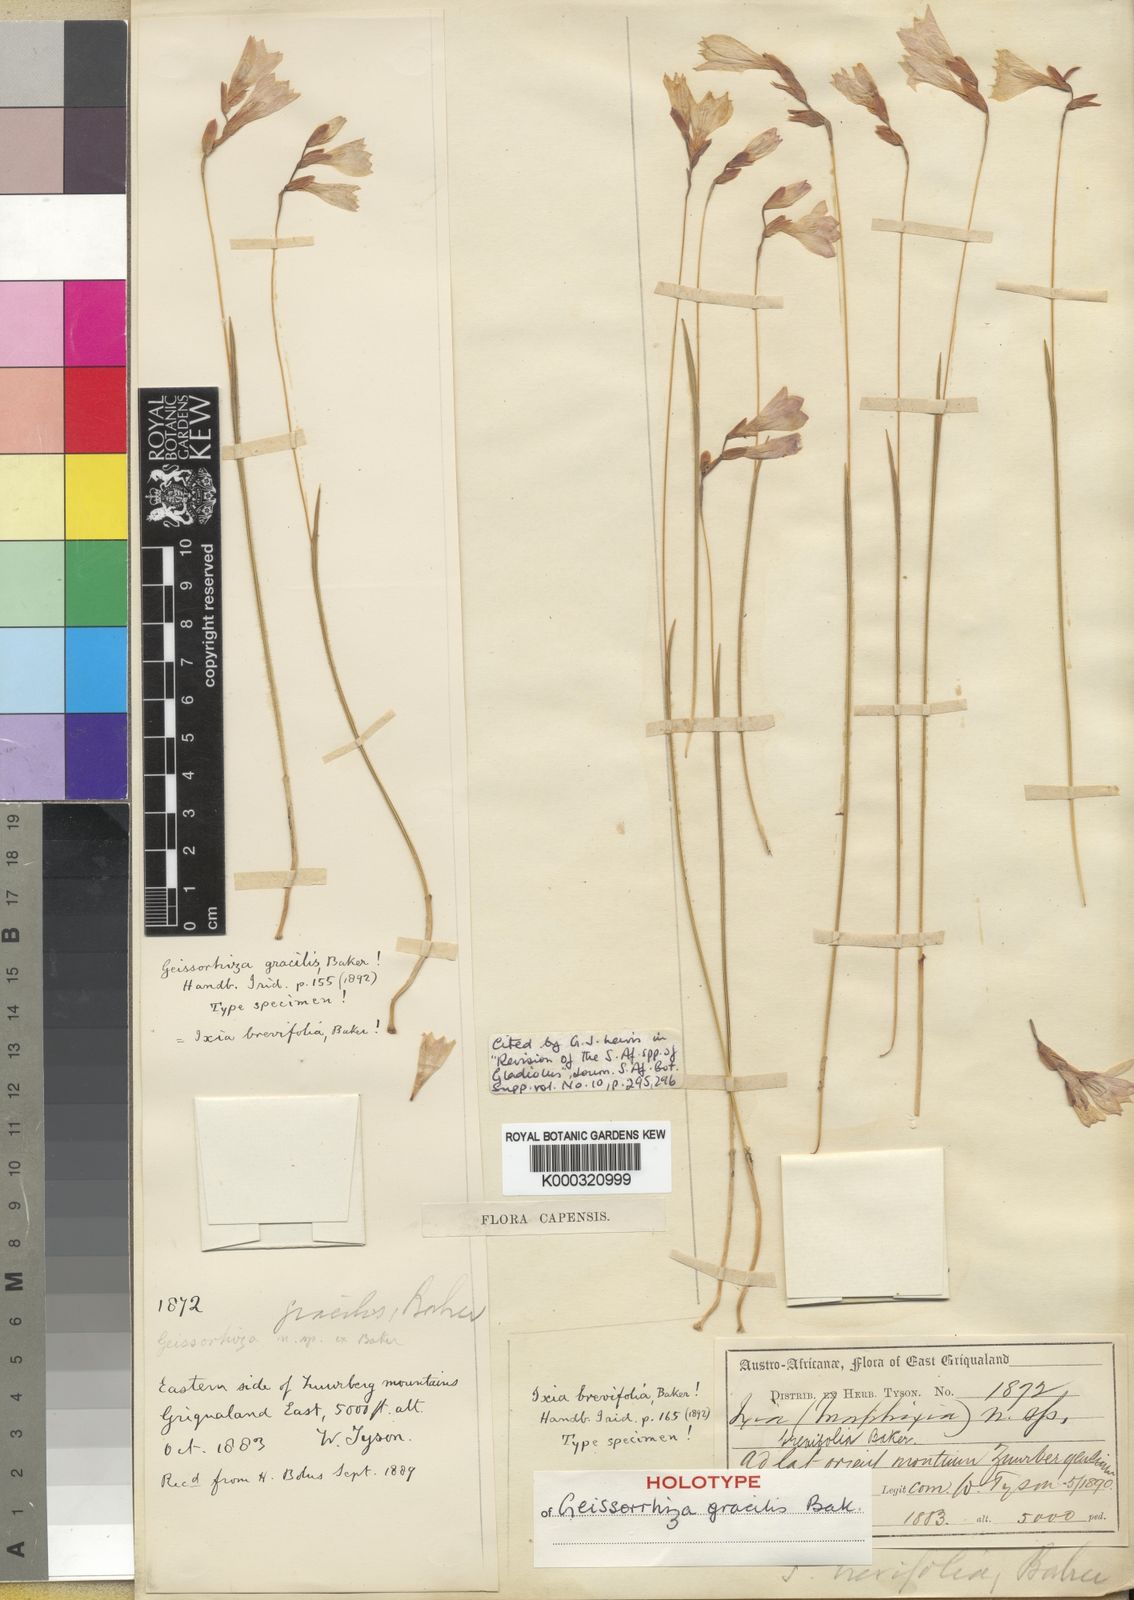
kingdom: Plantae
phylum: Tracheophyta
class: Liliopsida
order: Asparagales
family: Iridaceae
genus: Gladiolus
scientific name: Gladiolus parvulus
